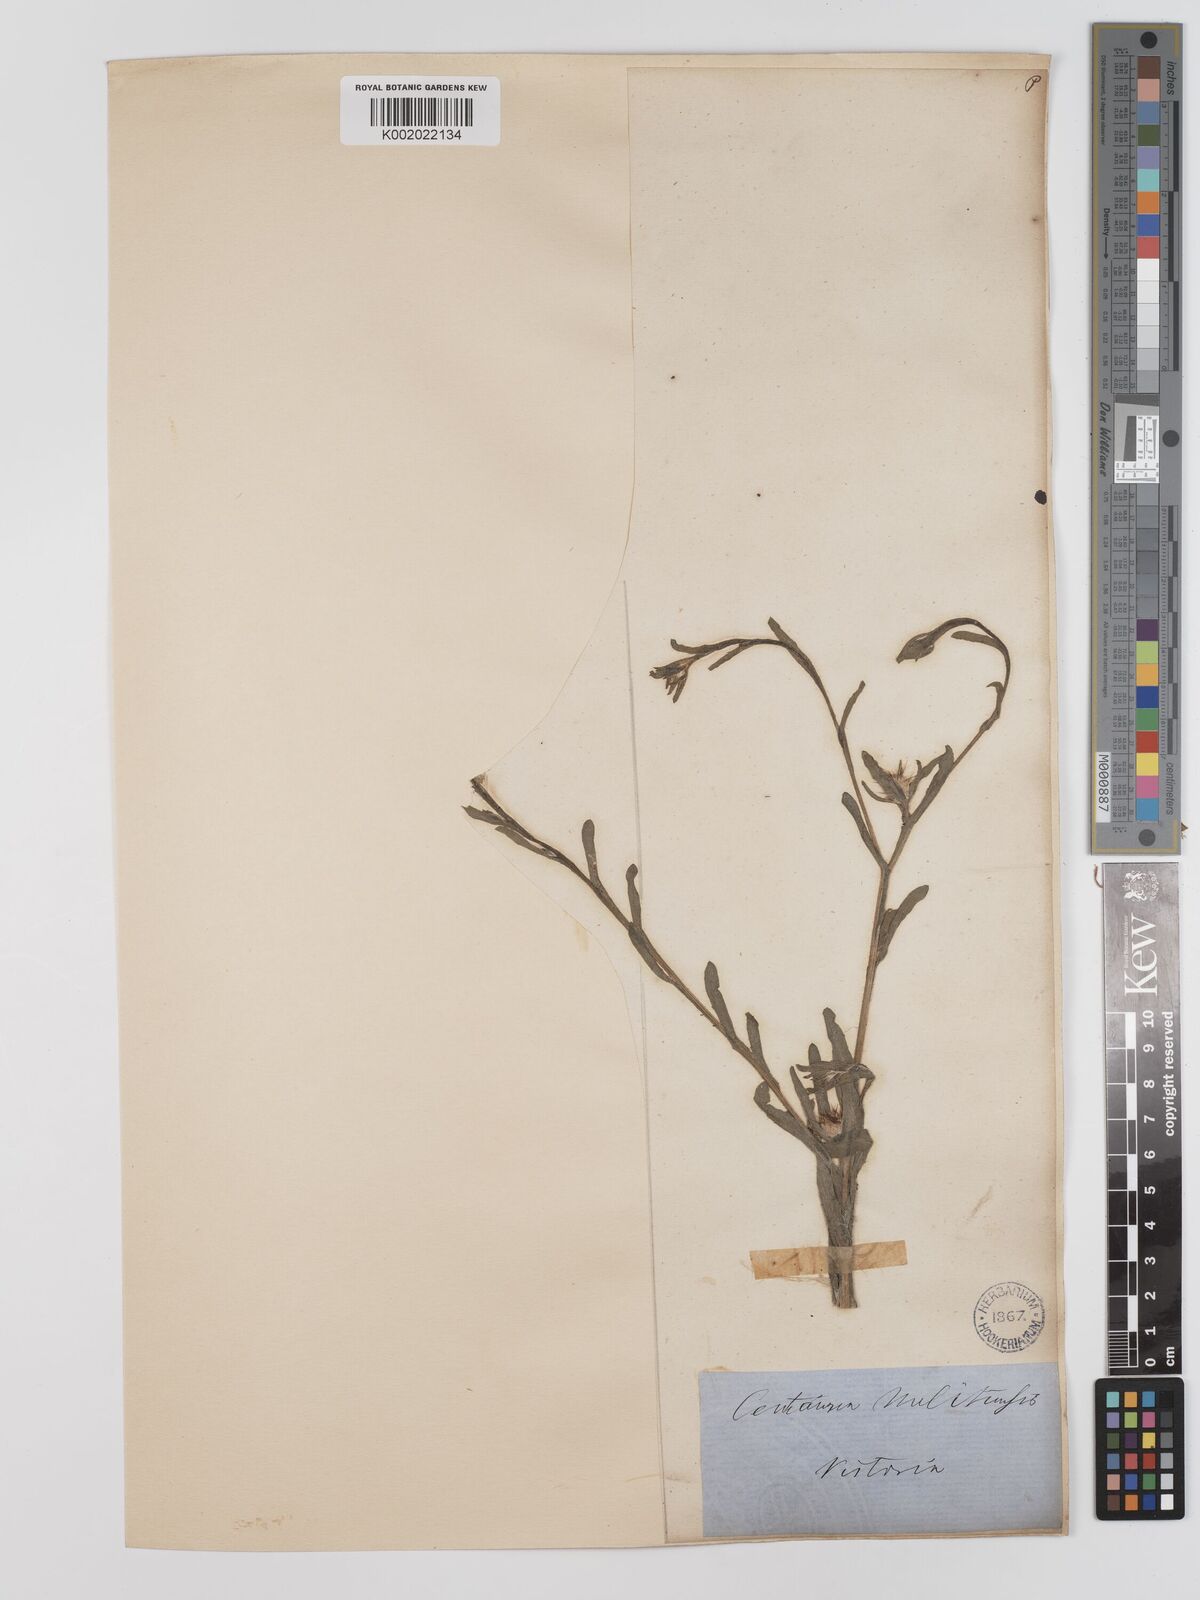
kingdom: Plantae
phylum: Tracheophyta
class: Magnoliopsida
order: Asterales
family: Asteraceae
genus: Centaurea
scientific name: Centaurea melitensis
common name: Maltese star-thistle
